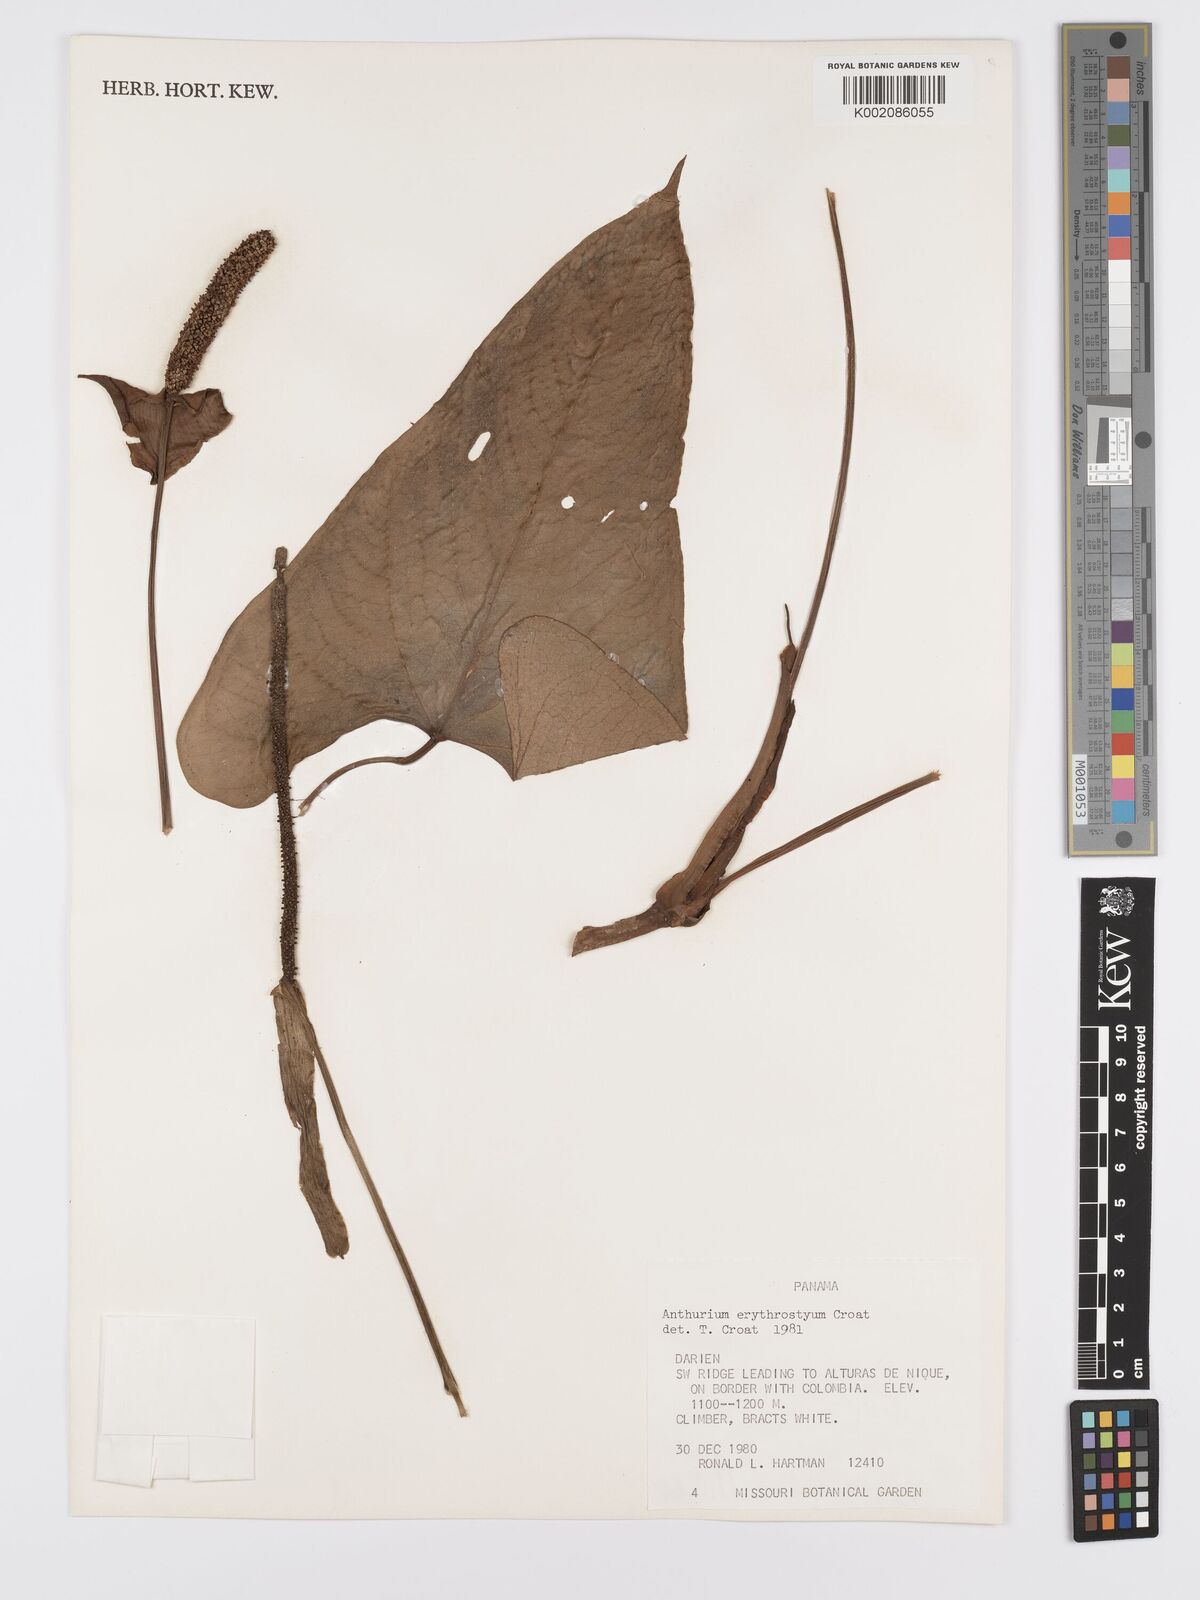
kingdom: Plantae
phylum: Tracheophyta
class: Liliopsida
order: Alismatales
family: Araceae
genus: Anthurium
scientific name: Anthurium erythrostachyum
